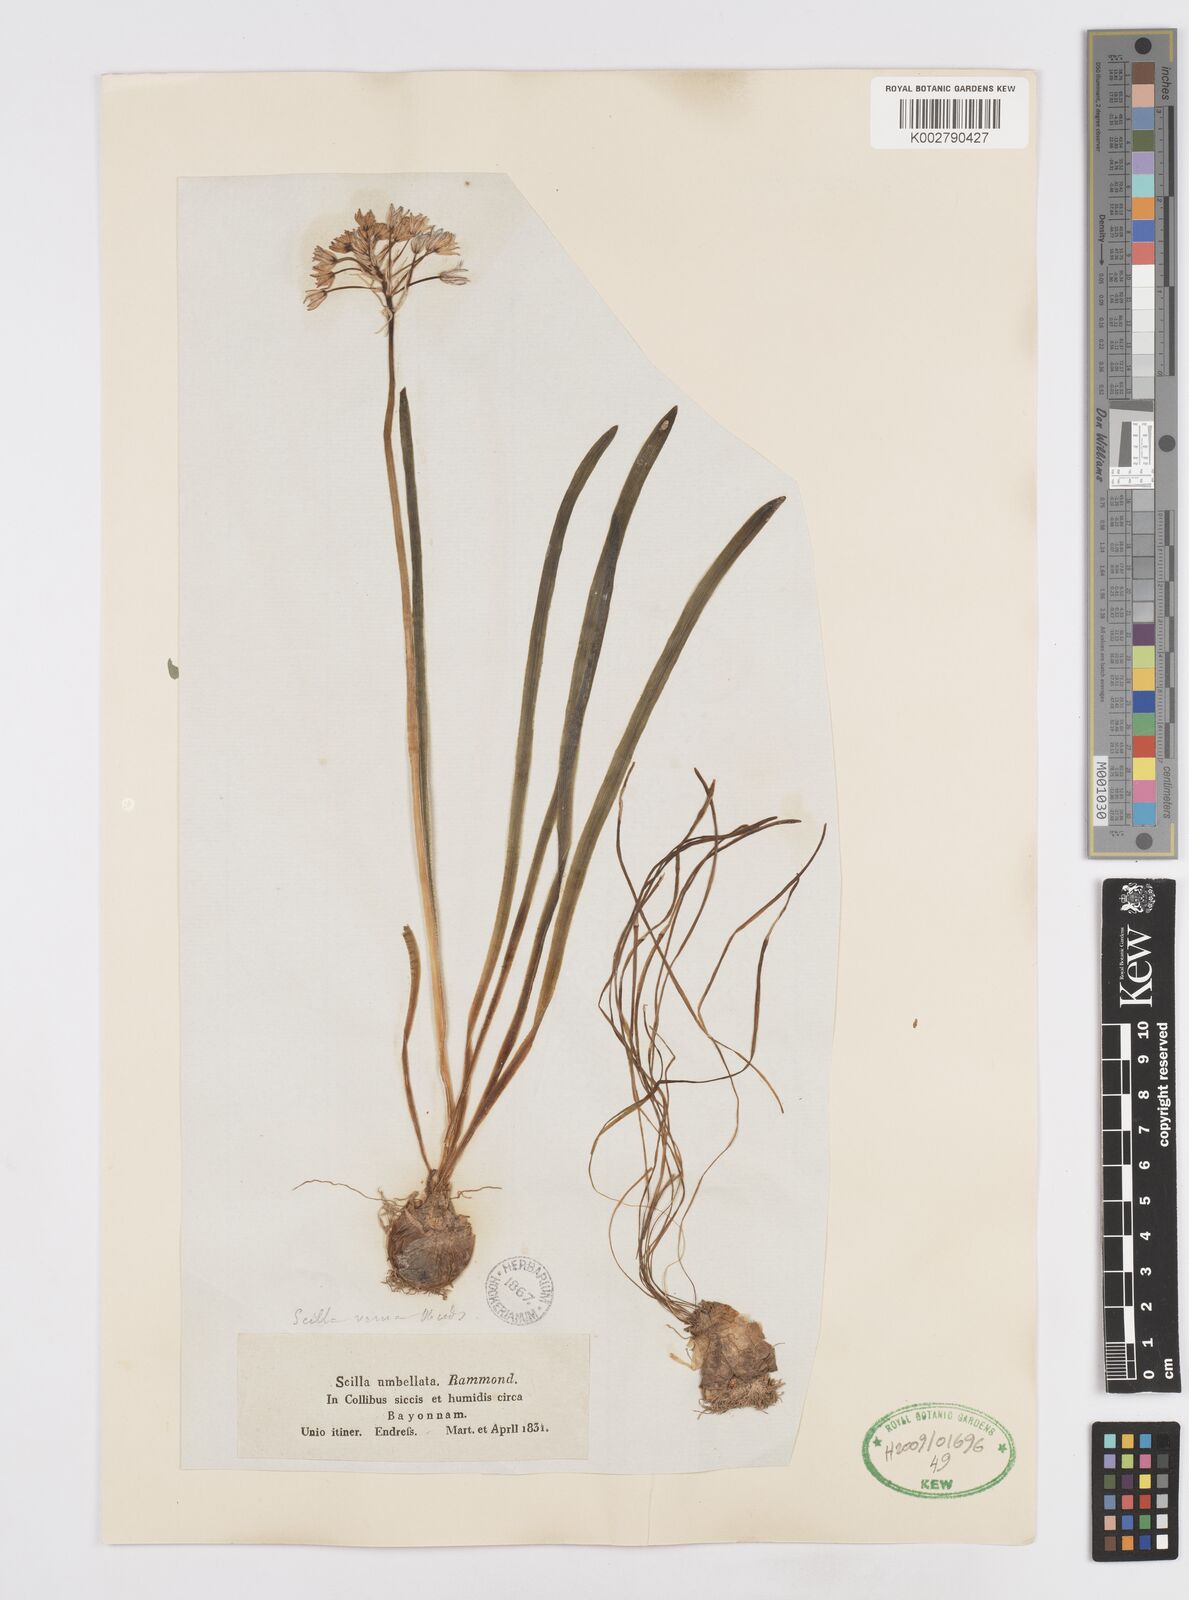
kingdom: Plantae
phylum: Tracheophyta
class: Liliopsida
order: Asparagales
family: Asparagaceae
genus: Scilla
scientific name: Scilla verna
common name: Spring squill
